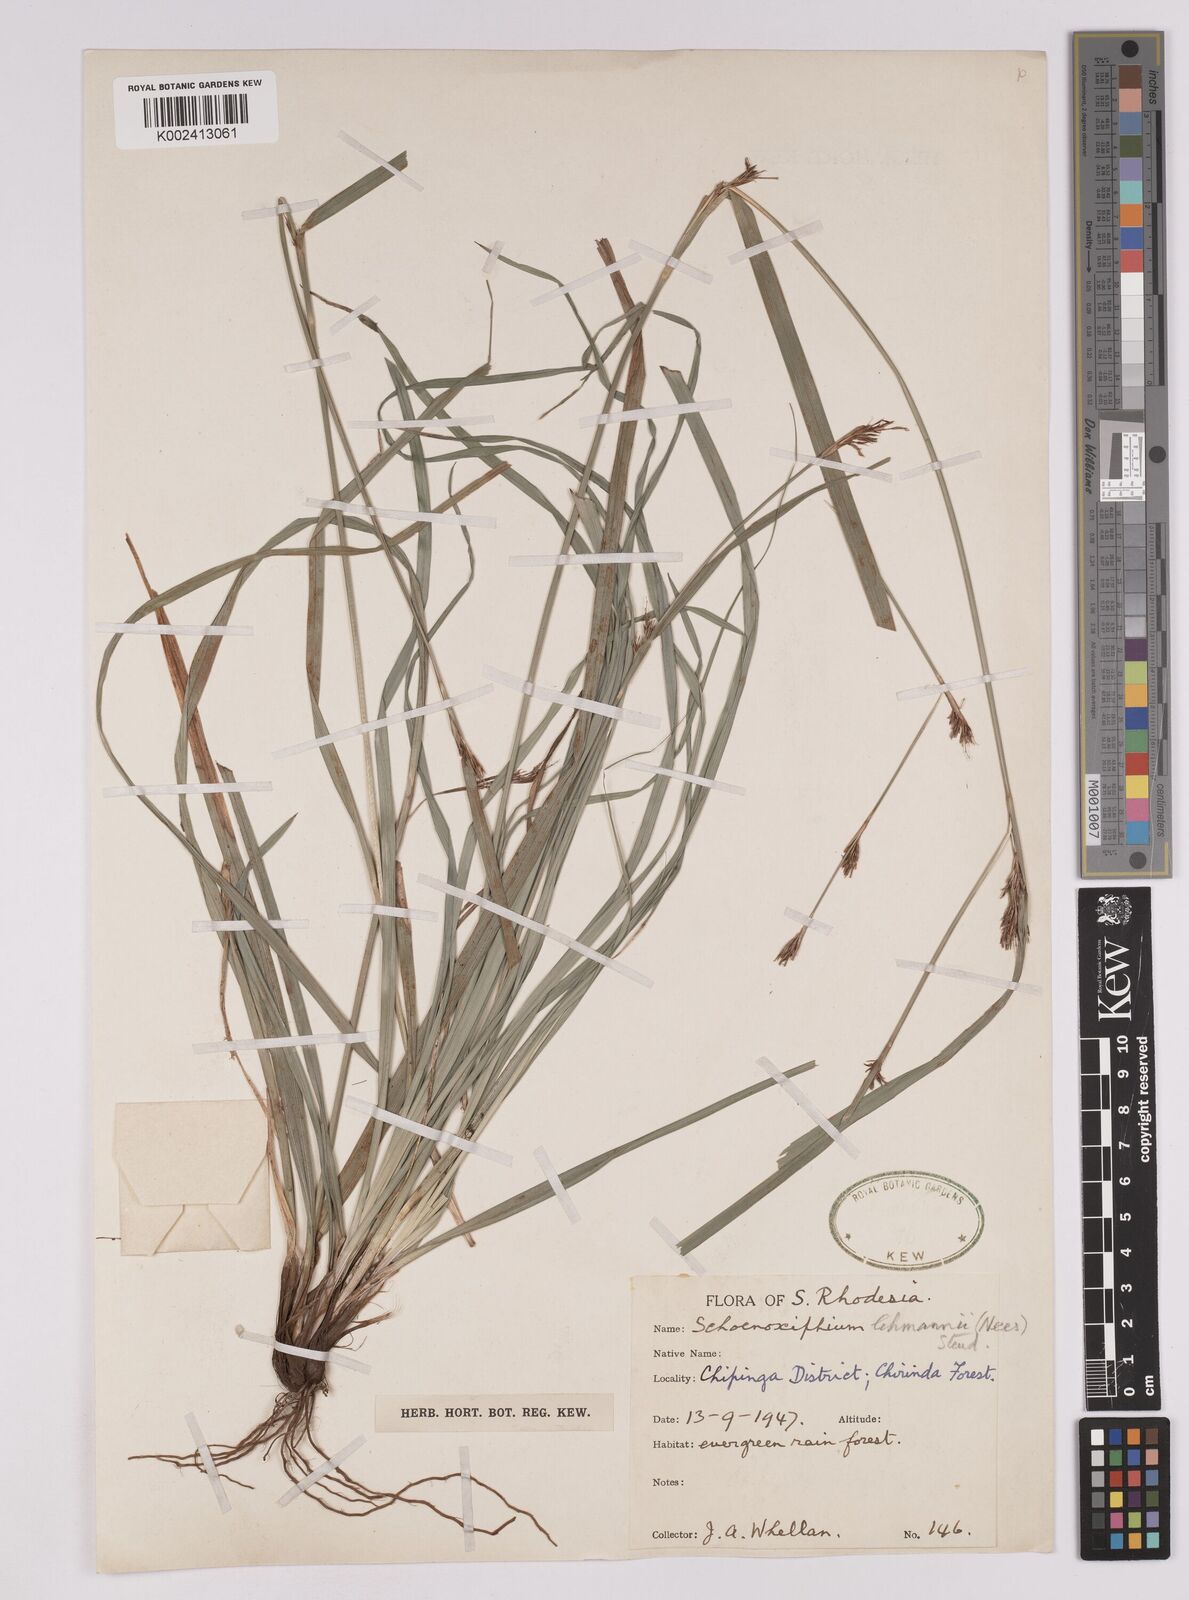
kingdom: Plantae
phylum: Tracheophyta
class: Liliopsida
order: Poales
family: Cyperaceae
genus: Carex
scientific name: Carex uhligii
